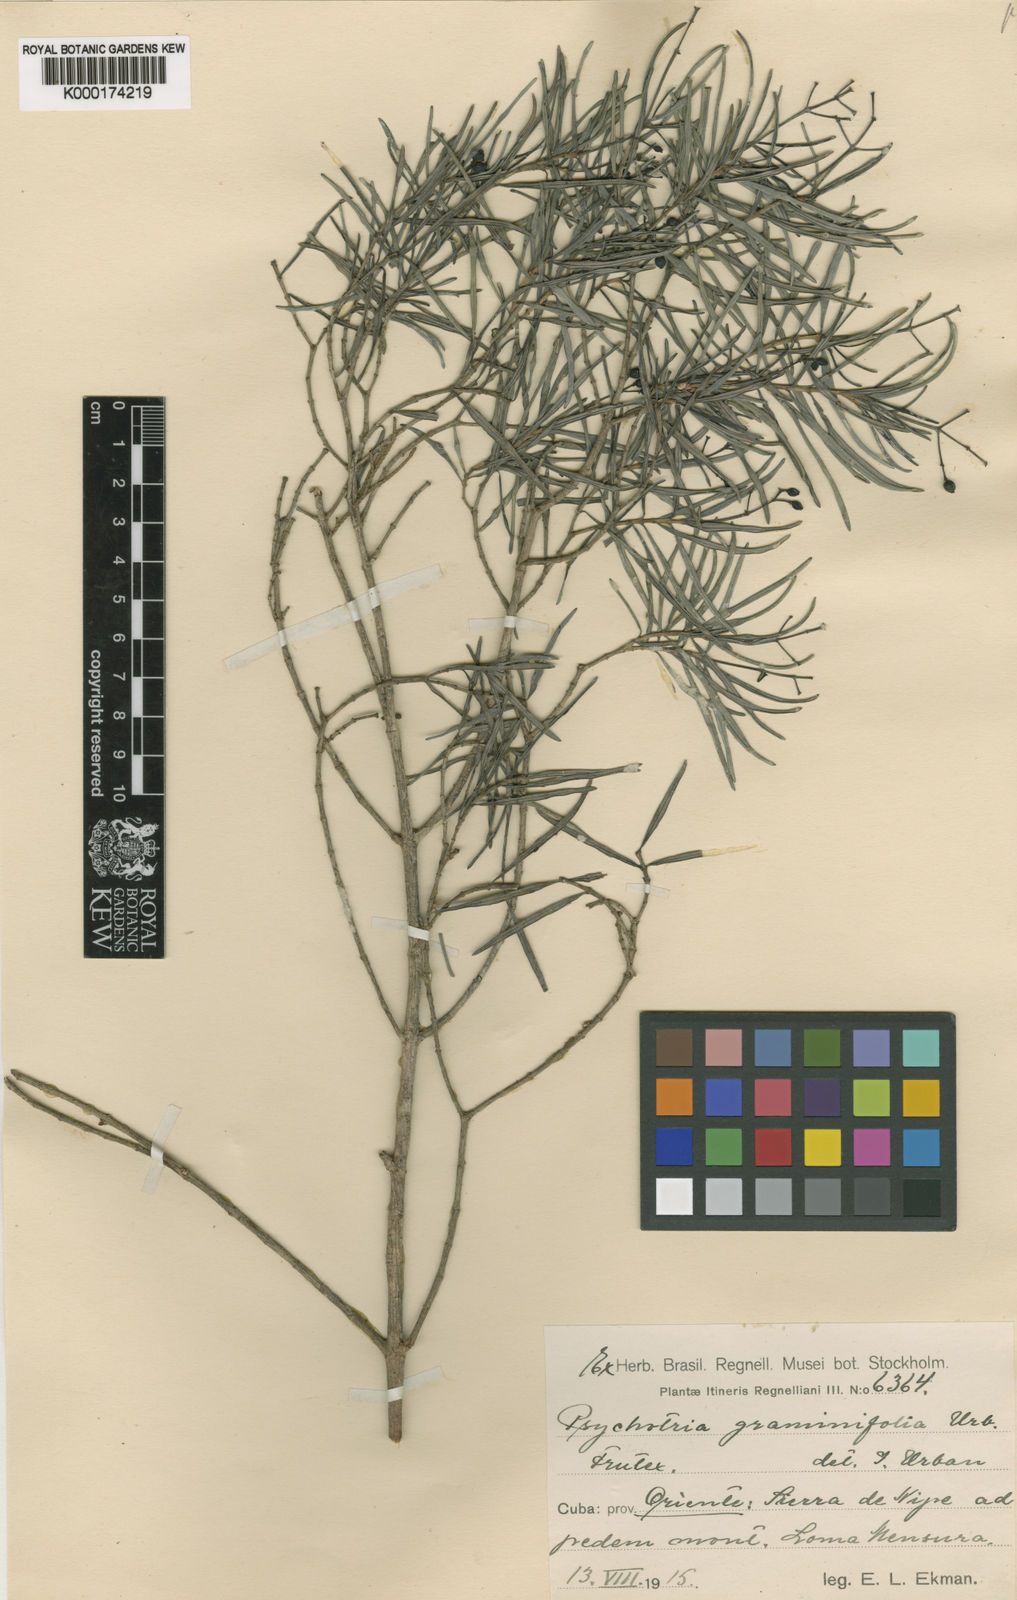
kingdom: Plantae
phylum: Tracheophyta
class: Magnoliopsida
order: Gentianales
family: Rubiaceae
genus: Psychotria
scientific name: Psychotria graminifolia
